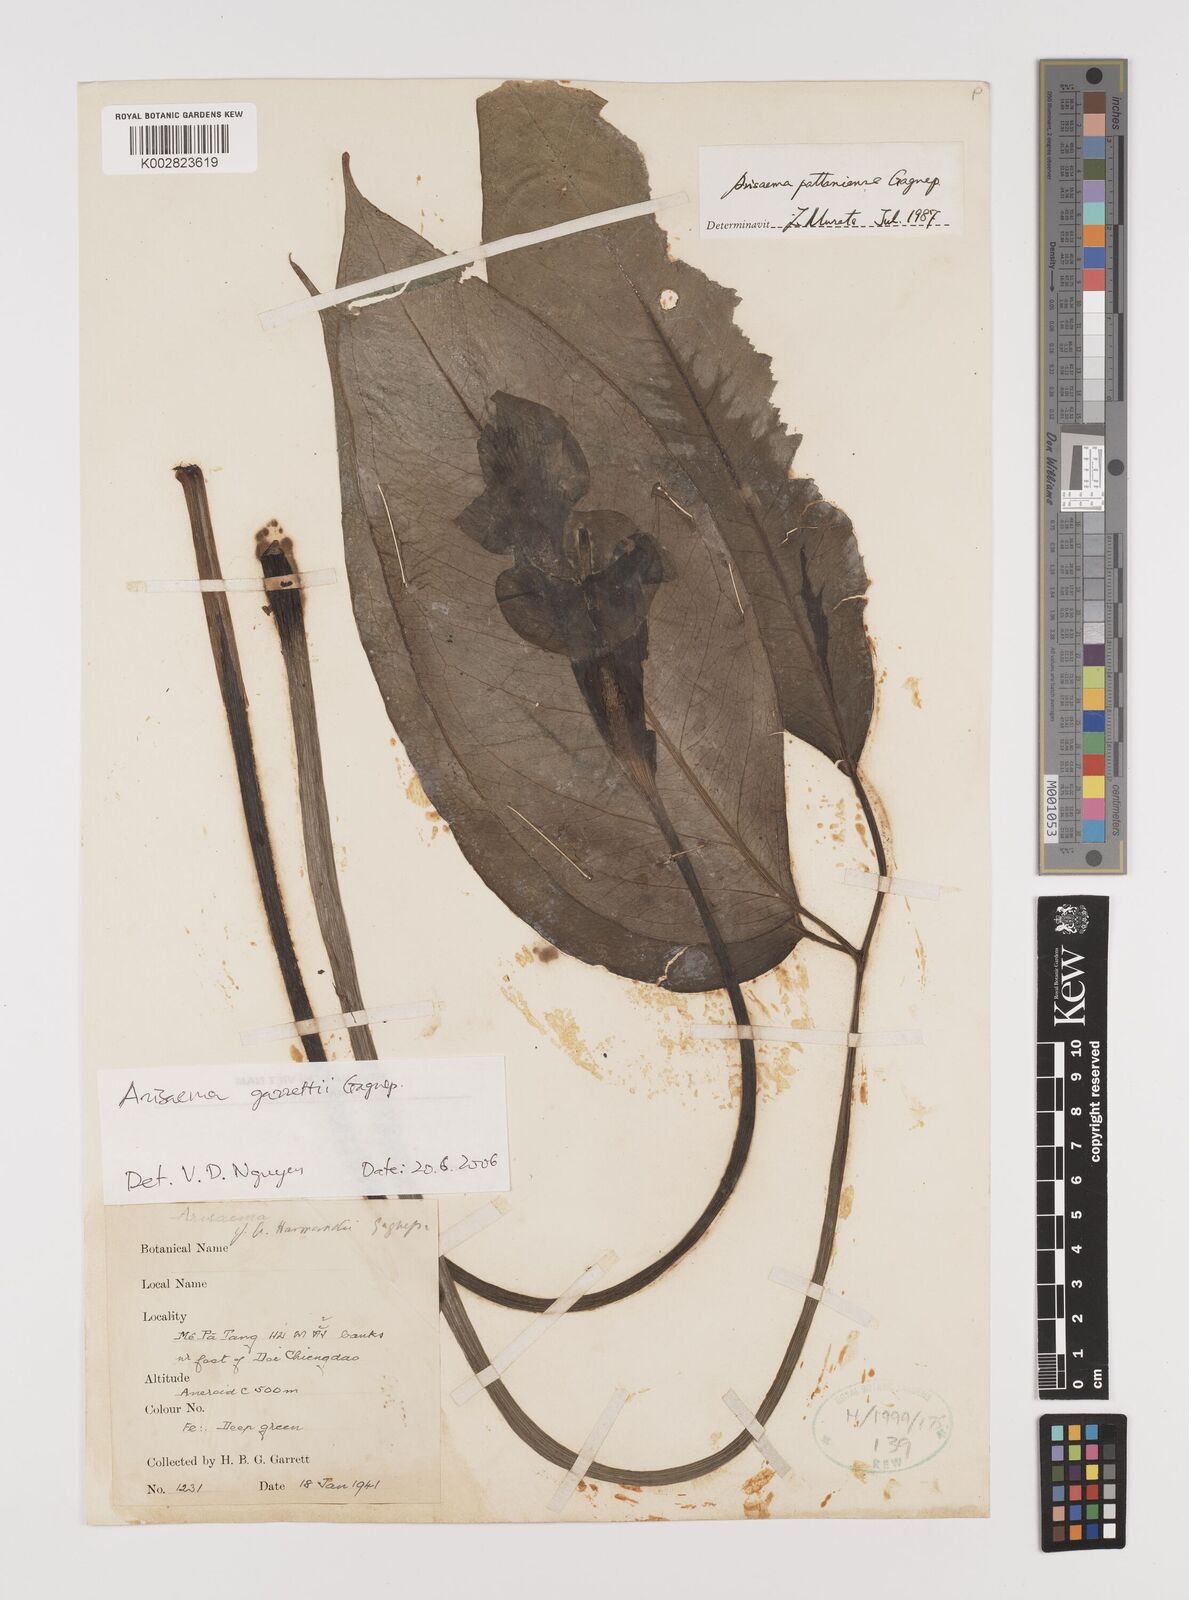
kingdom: Plantae
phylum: Tracheophyta
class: Liliopsida
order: Alismatales
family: Araceae
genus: Arisaema
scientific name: Arisaema garrettii
